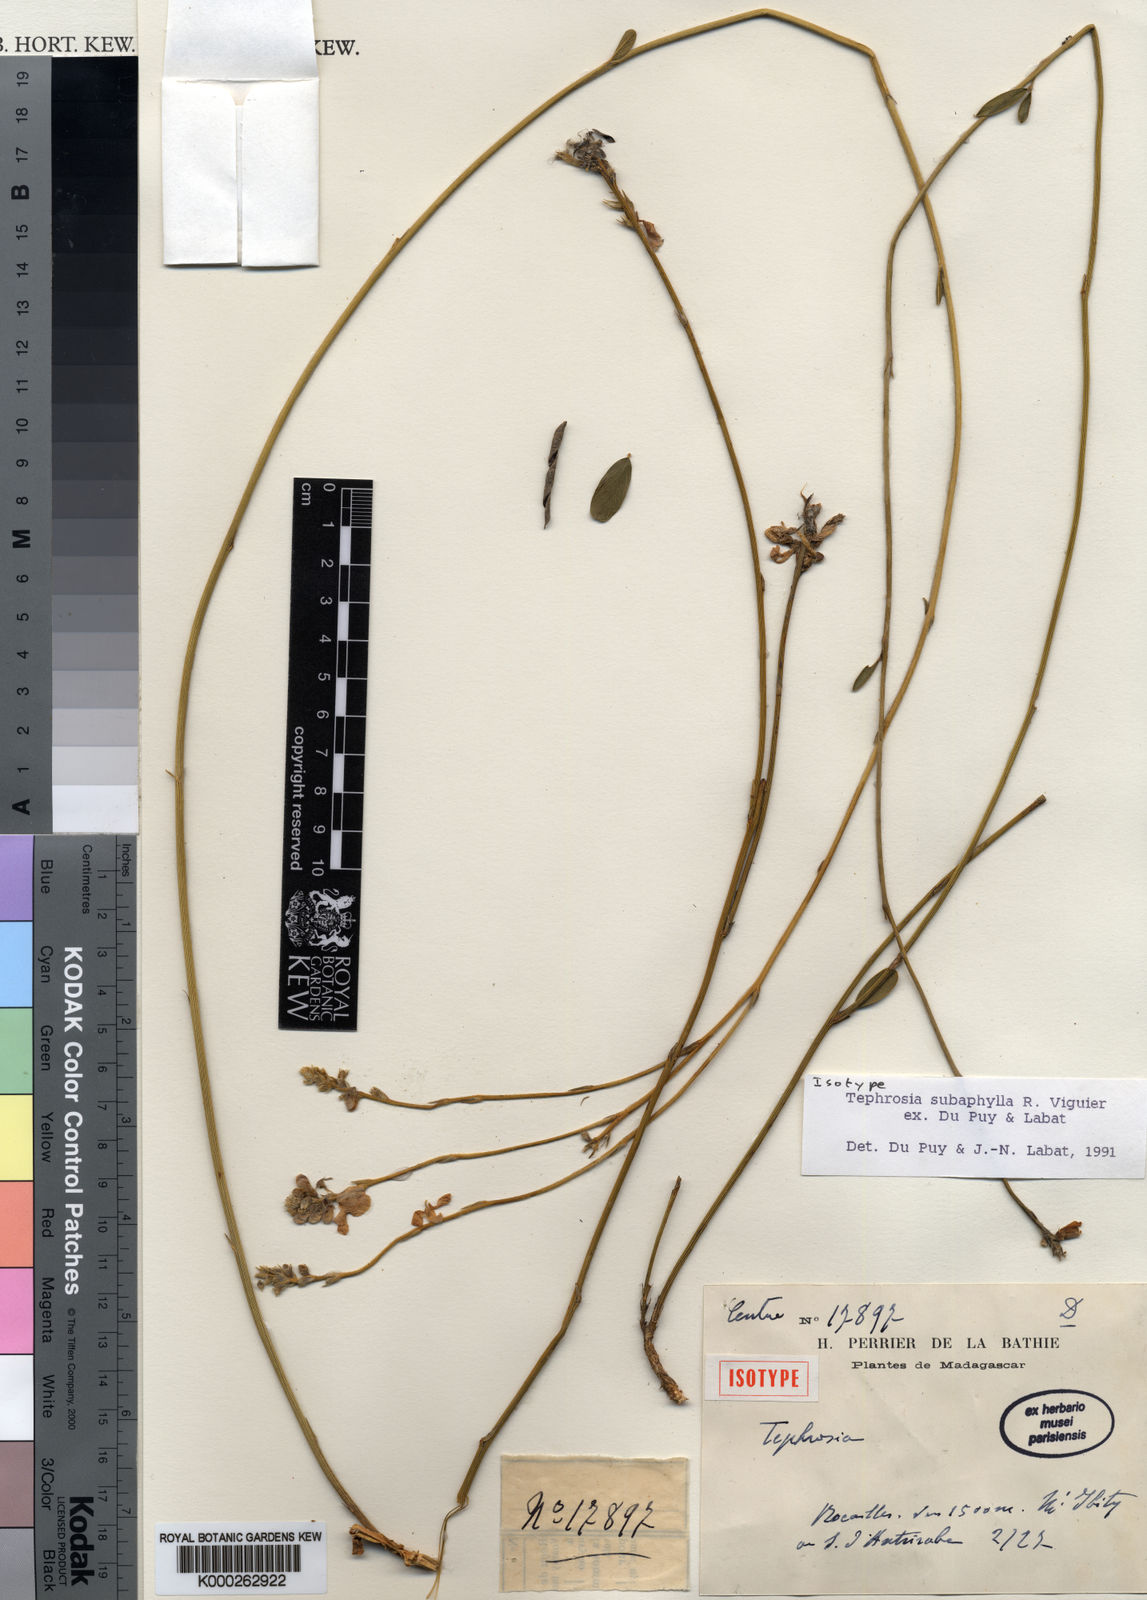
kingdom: Plantae
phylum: Tracheophyta
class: Magnoliopsida
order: Fabales
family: Fabaceae
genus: Tephrosia
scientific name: Tephrosia subaphylla
